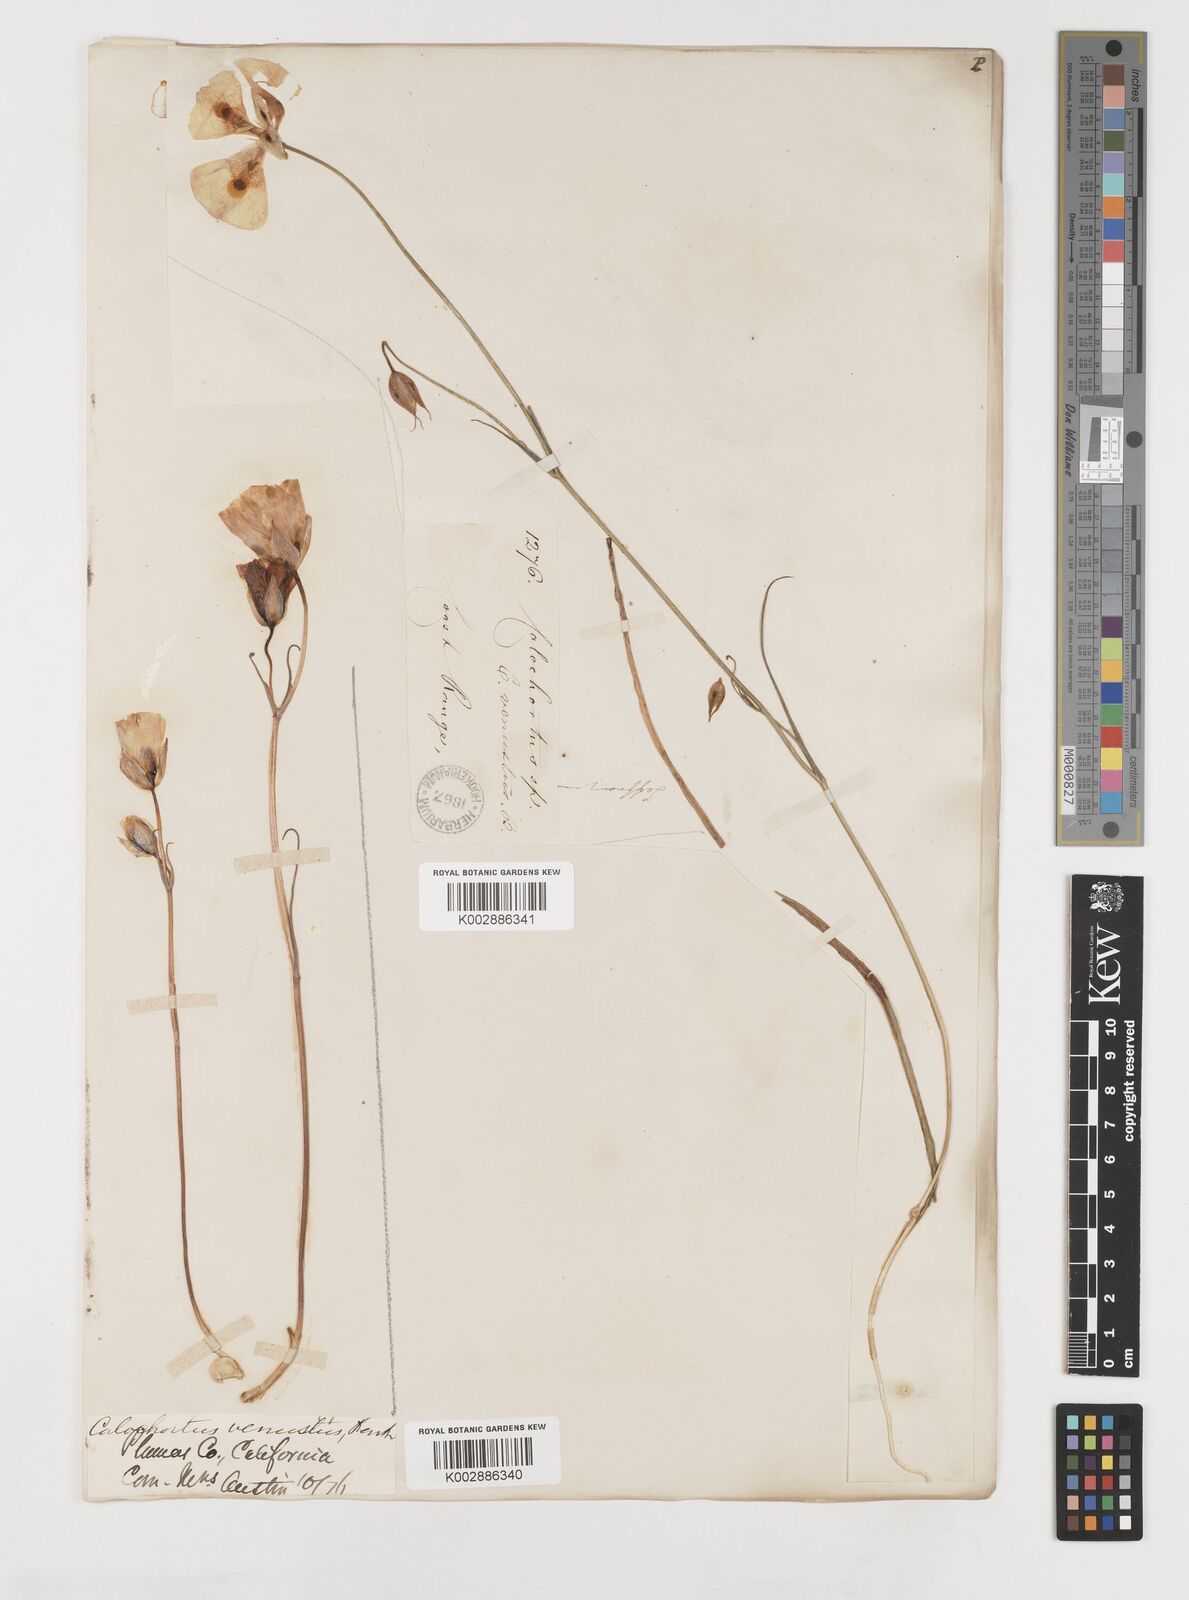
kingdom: Plantae
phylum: Tracheophyta
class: Liliopsida
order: Liliales
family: Liliaceae
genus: Calochortus
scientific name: Calochortus venustus
